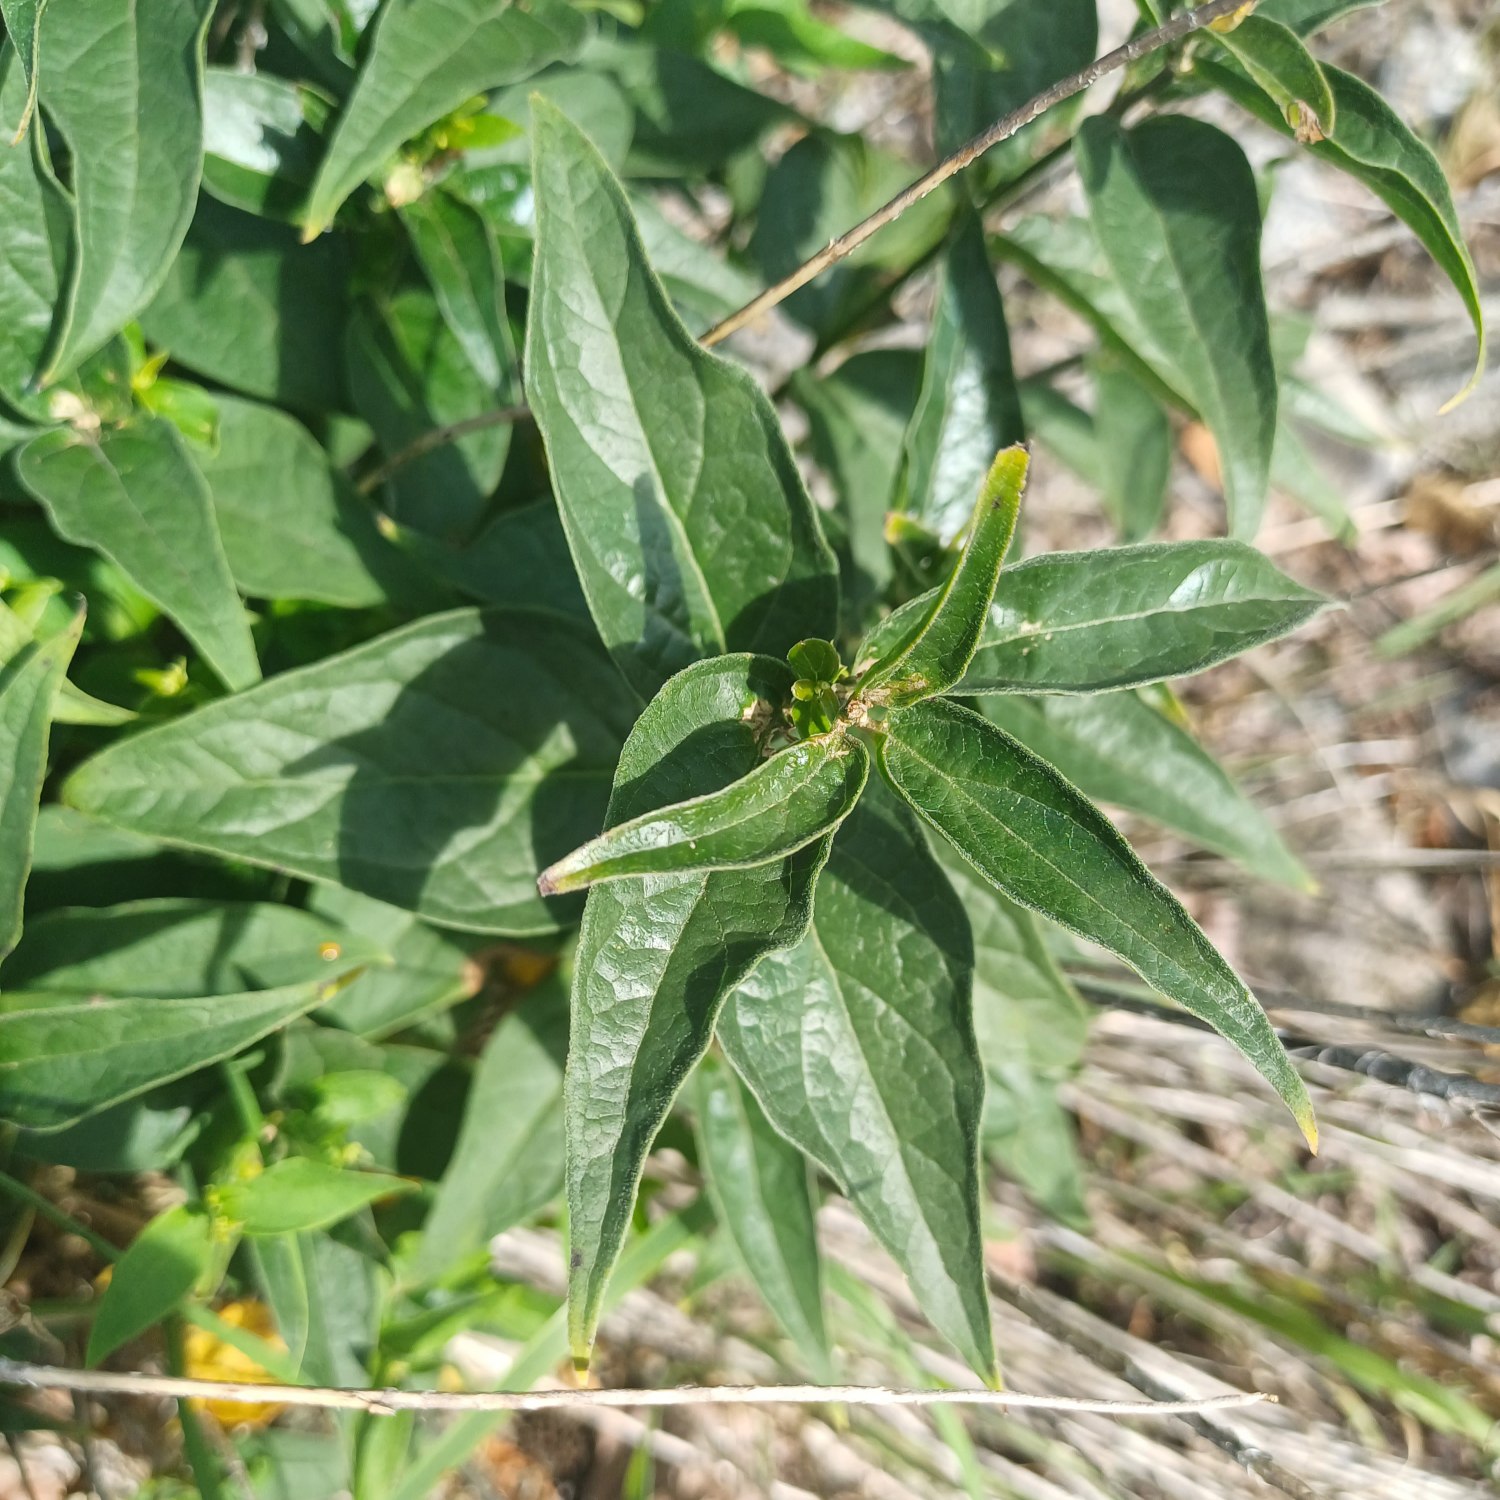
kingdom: Plantae
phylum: Tracheophyta
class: Magnoliopsida
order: Ranunculales
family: Papaveraceae
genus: Chelidonium
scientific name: Chelidonium majus
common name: Svaleurt
